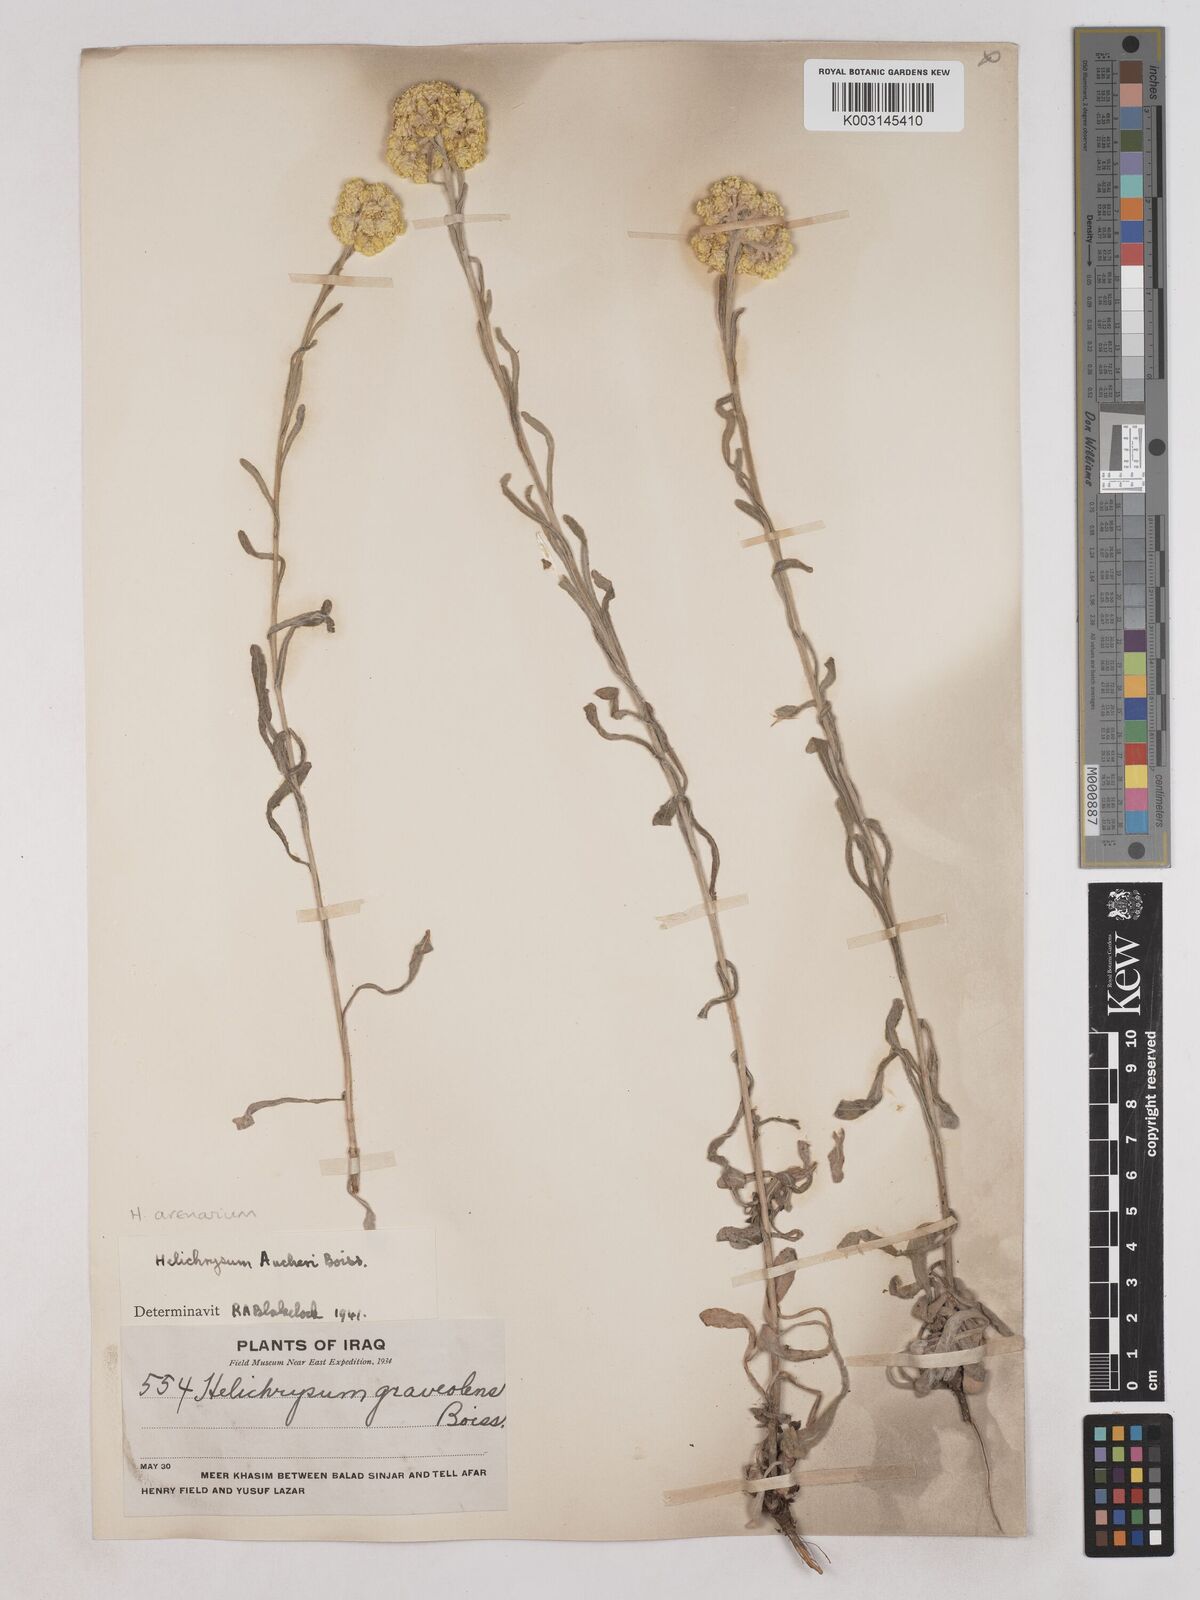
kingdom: Plantae
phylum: Tracheophyta
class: Magnoliopsida
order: Asterales
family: Asteraceae
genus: Helichrysum
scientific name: Helichrysum arenarium
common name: Strawflower
